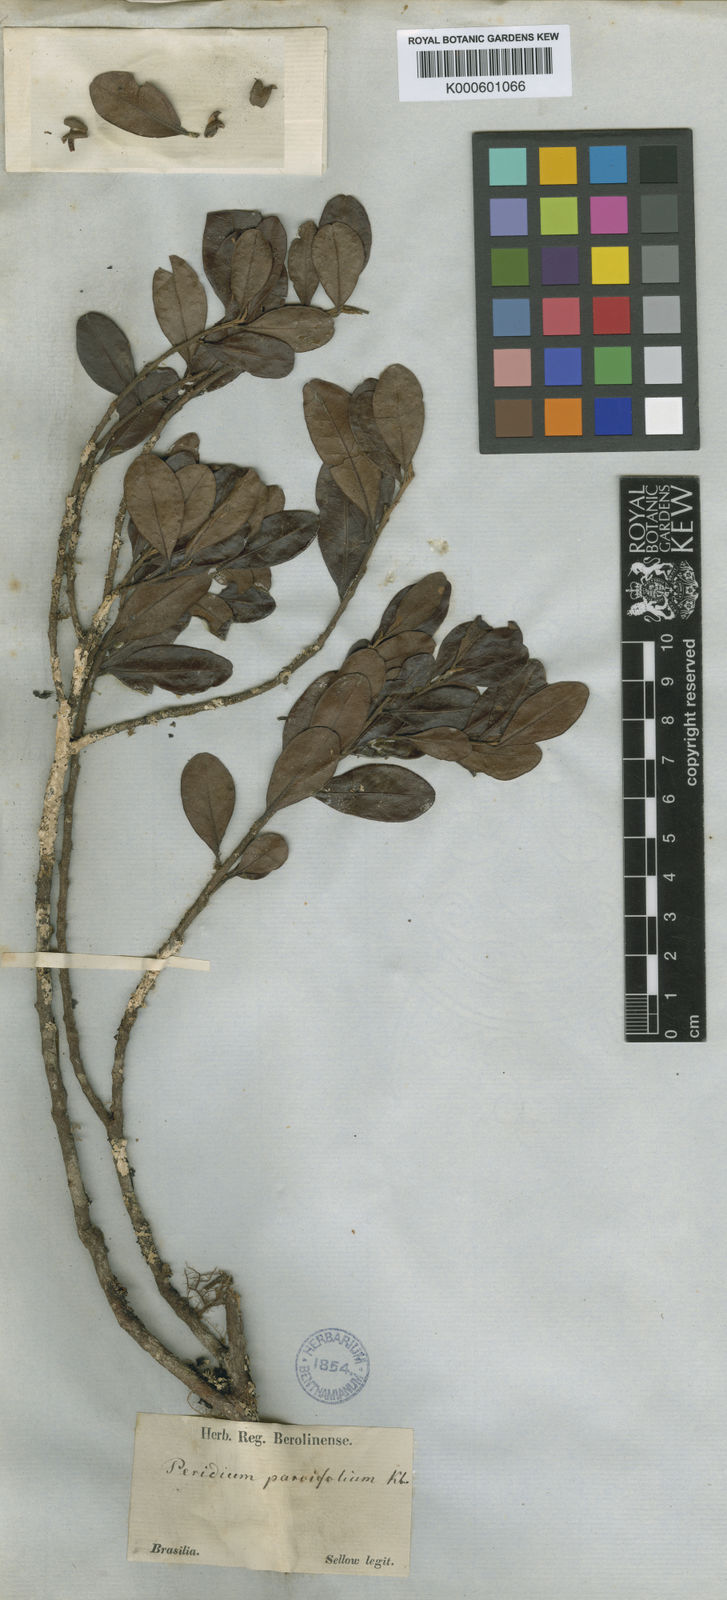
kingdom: Plantae
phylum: Tracheophyta
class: Magnoliopsida
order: Malpighiales
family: Peraceae
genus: Pera
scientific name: Pera
